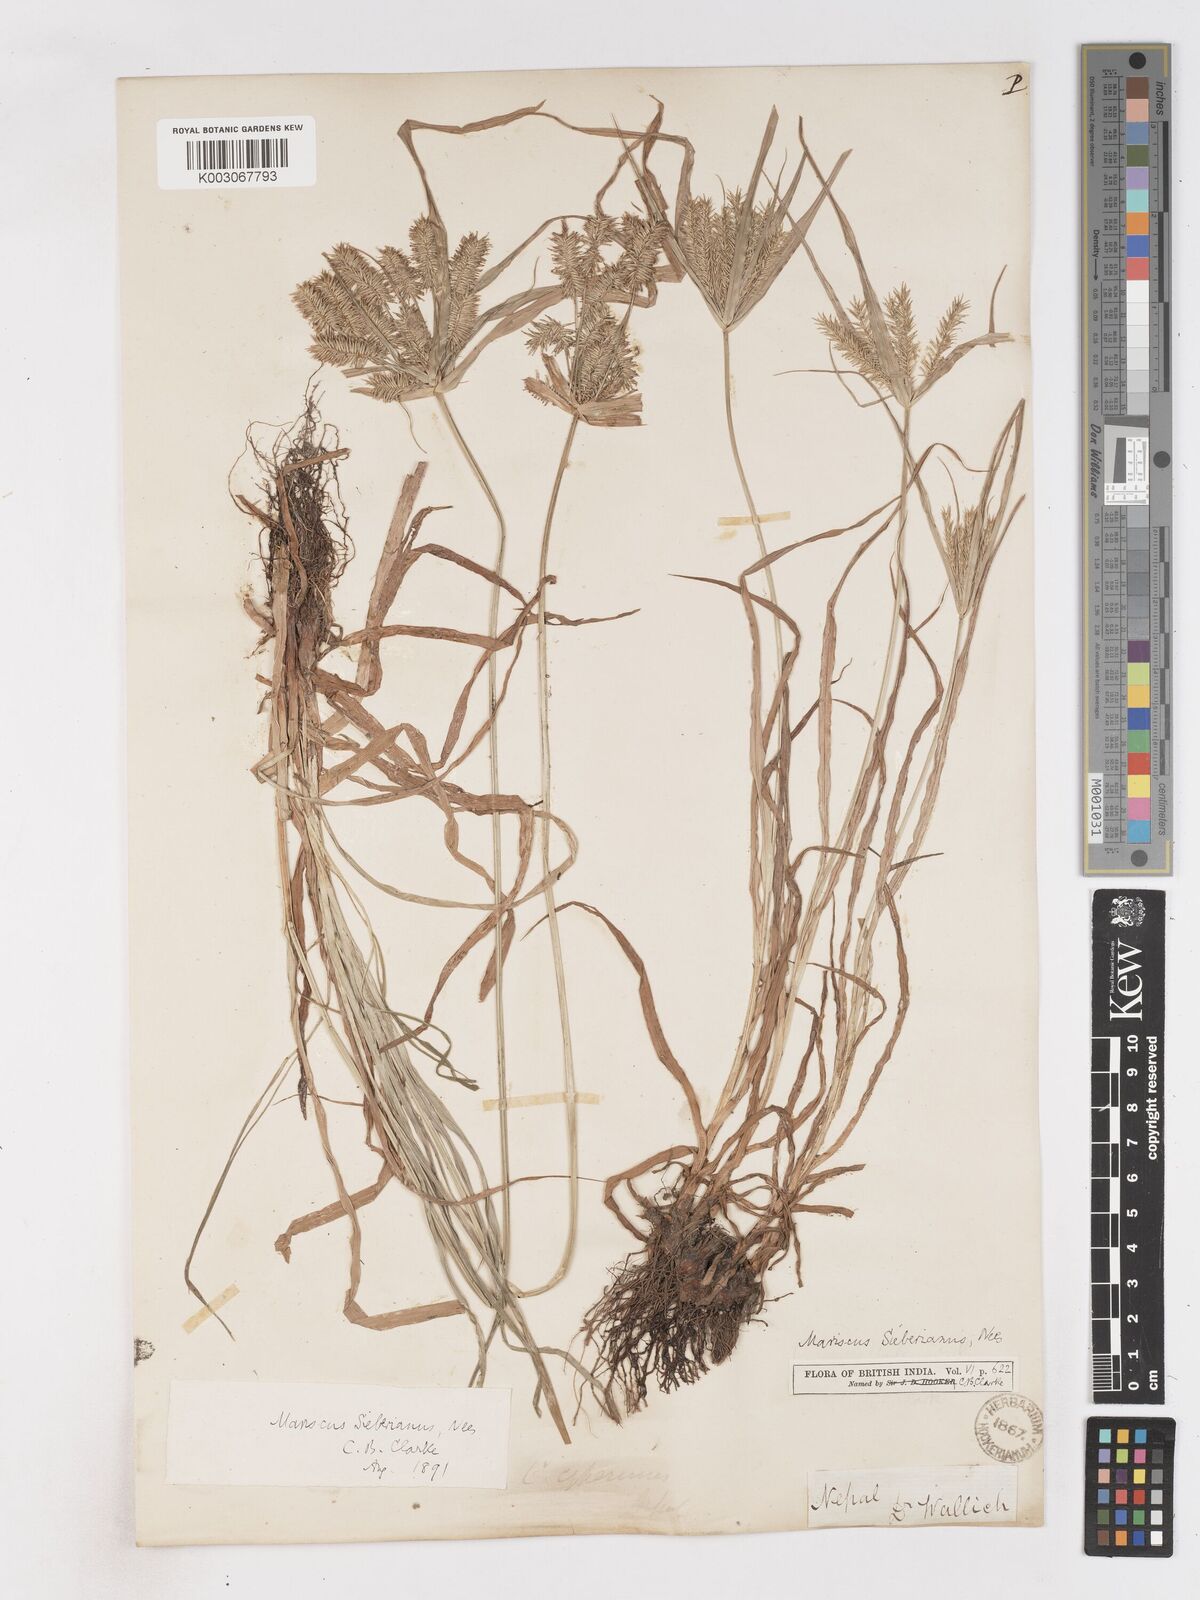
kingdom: Plantae
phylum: Tracheophyta
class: Liliopsida
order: Poales
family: Cyperaceae
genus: Cyperus
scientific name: Cyperus cyperoides
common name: Pacific island flat sedge
